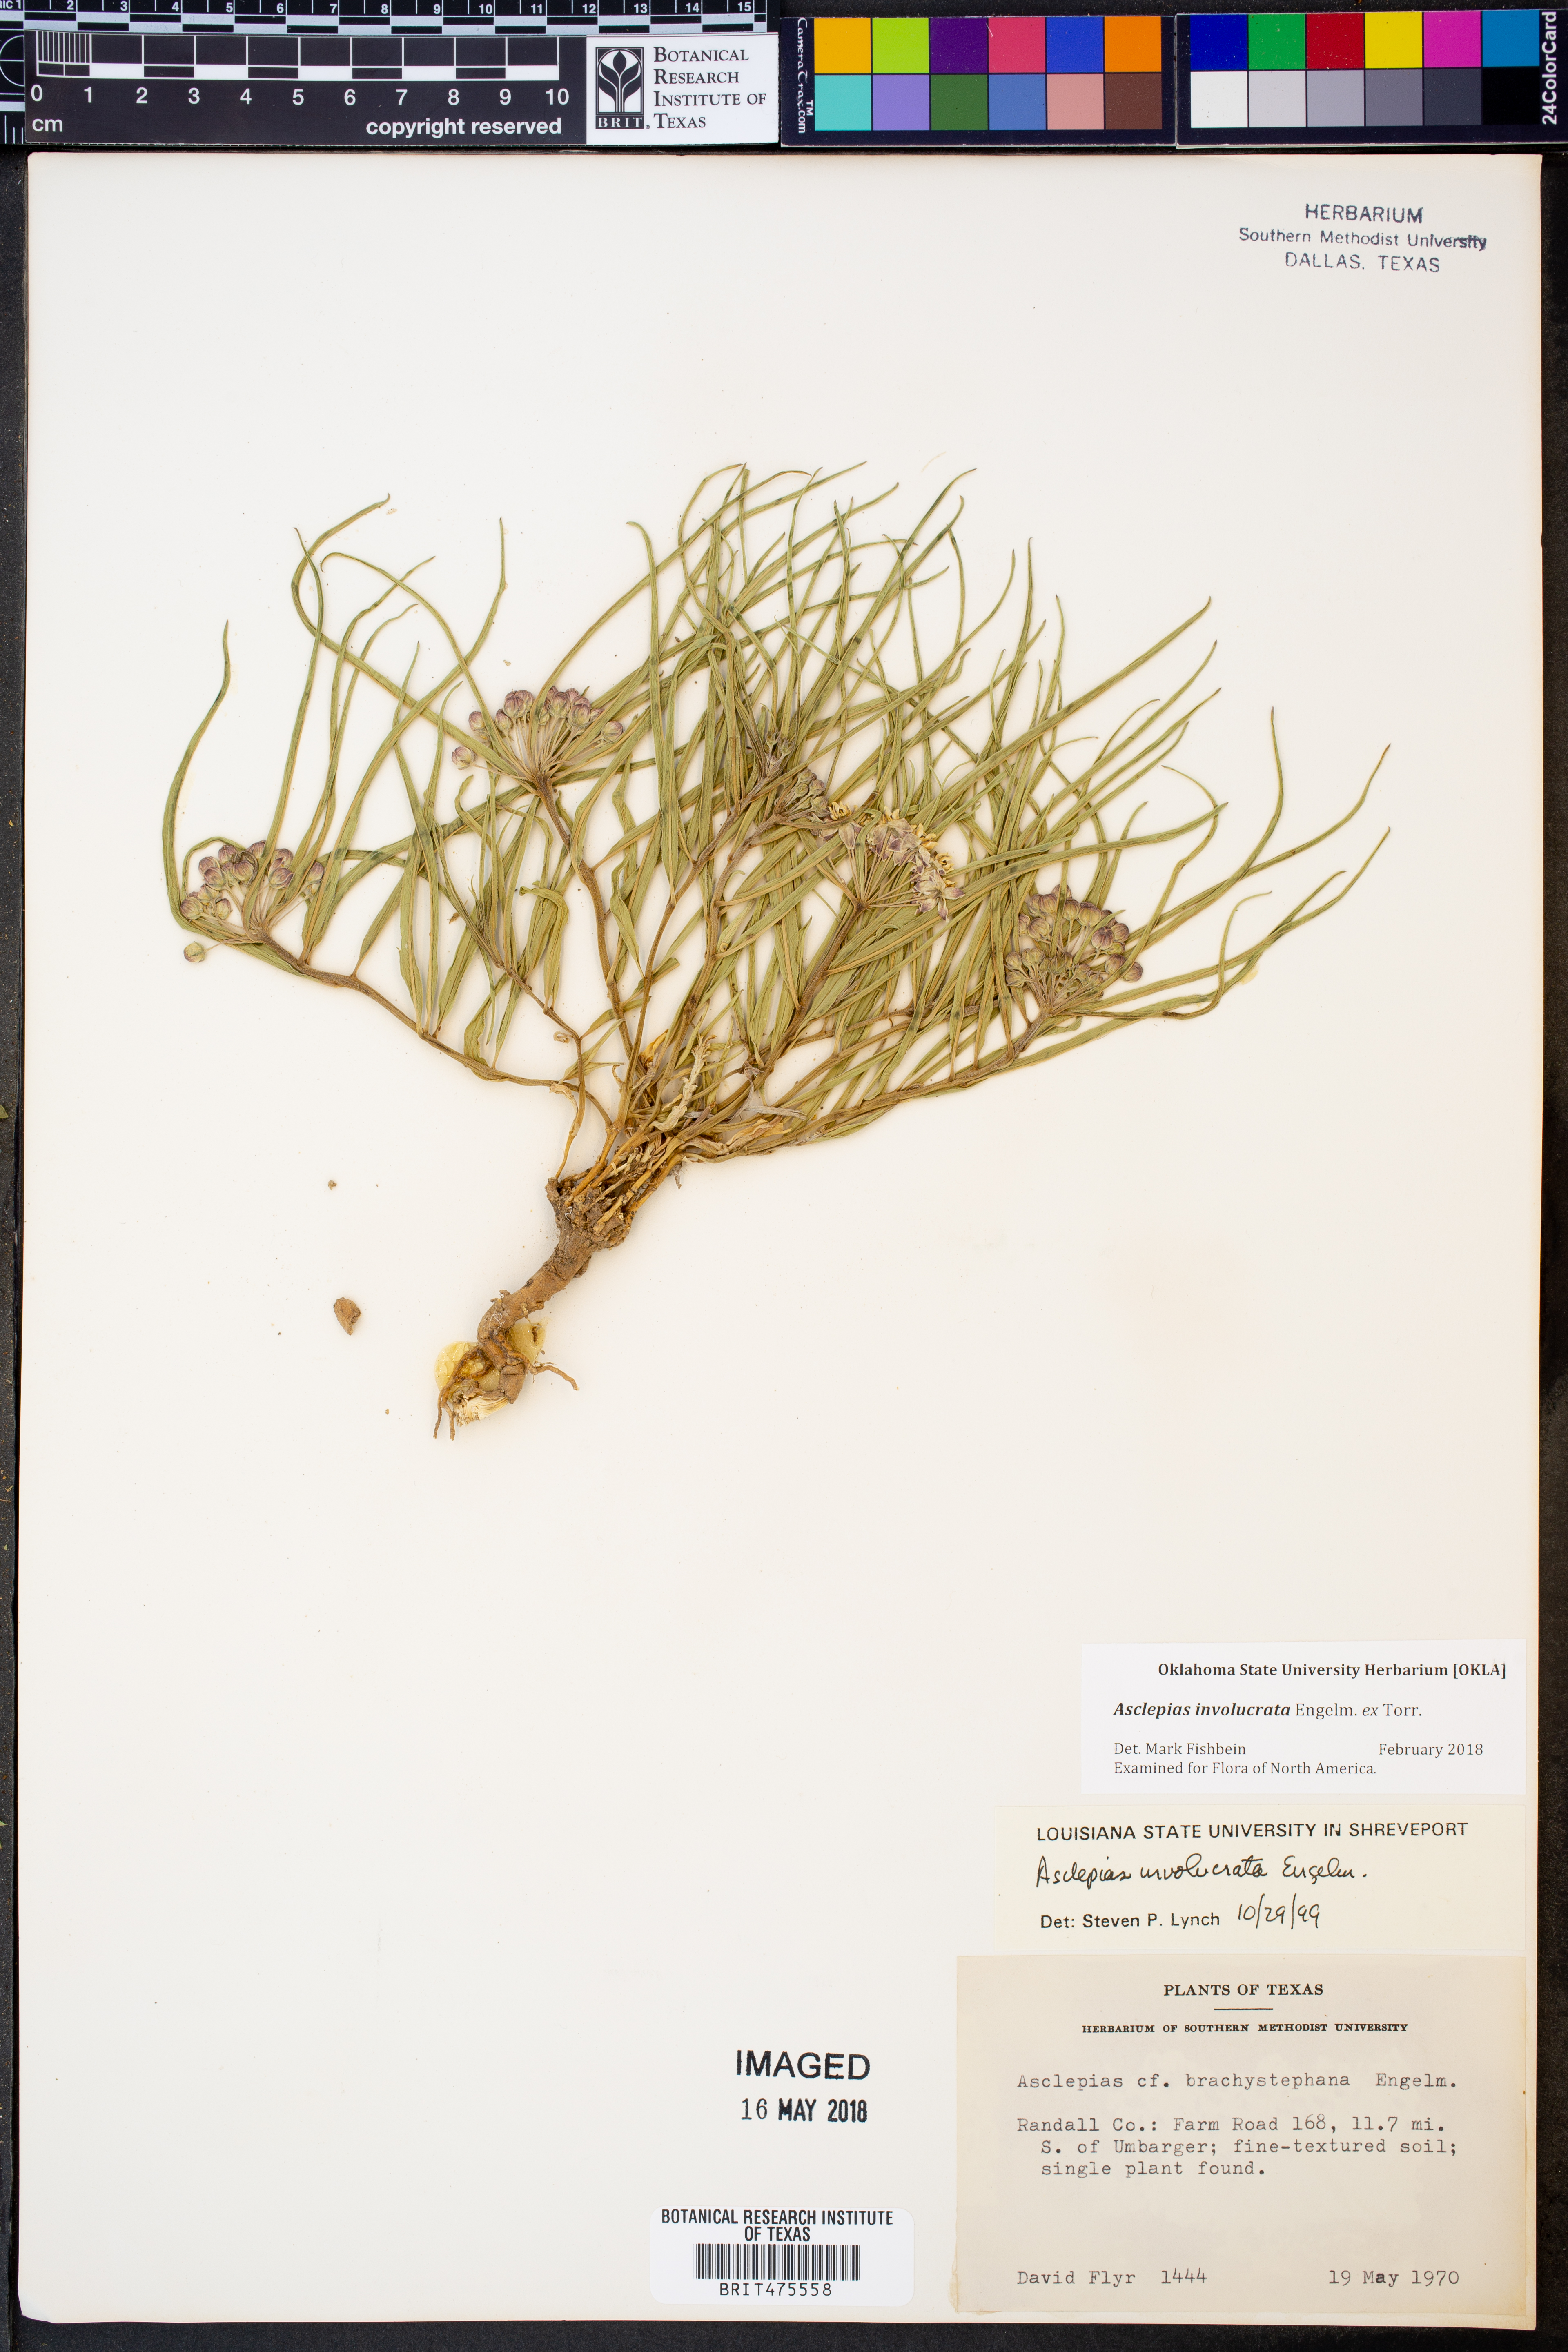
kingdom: Plantae
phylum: Tracheophyta
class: Magnoliopsida
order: Gentianales
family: Apocynaceae
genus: Asclepias
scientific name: Asclepias involucrata
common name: Dwarf milkweed
